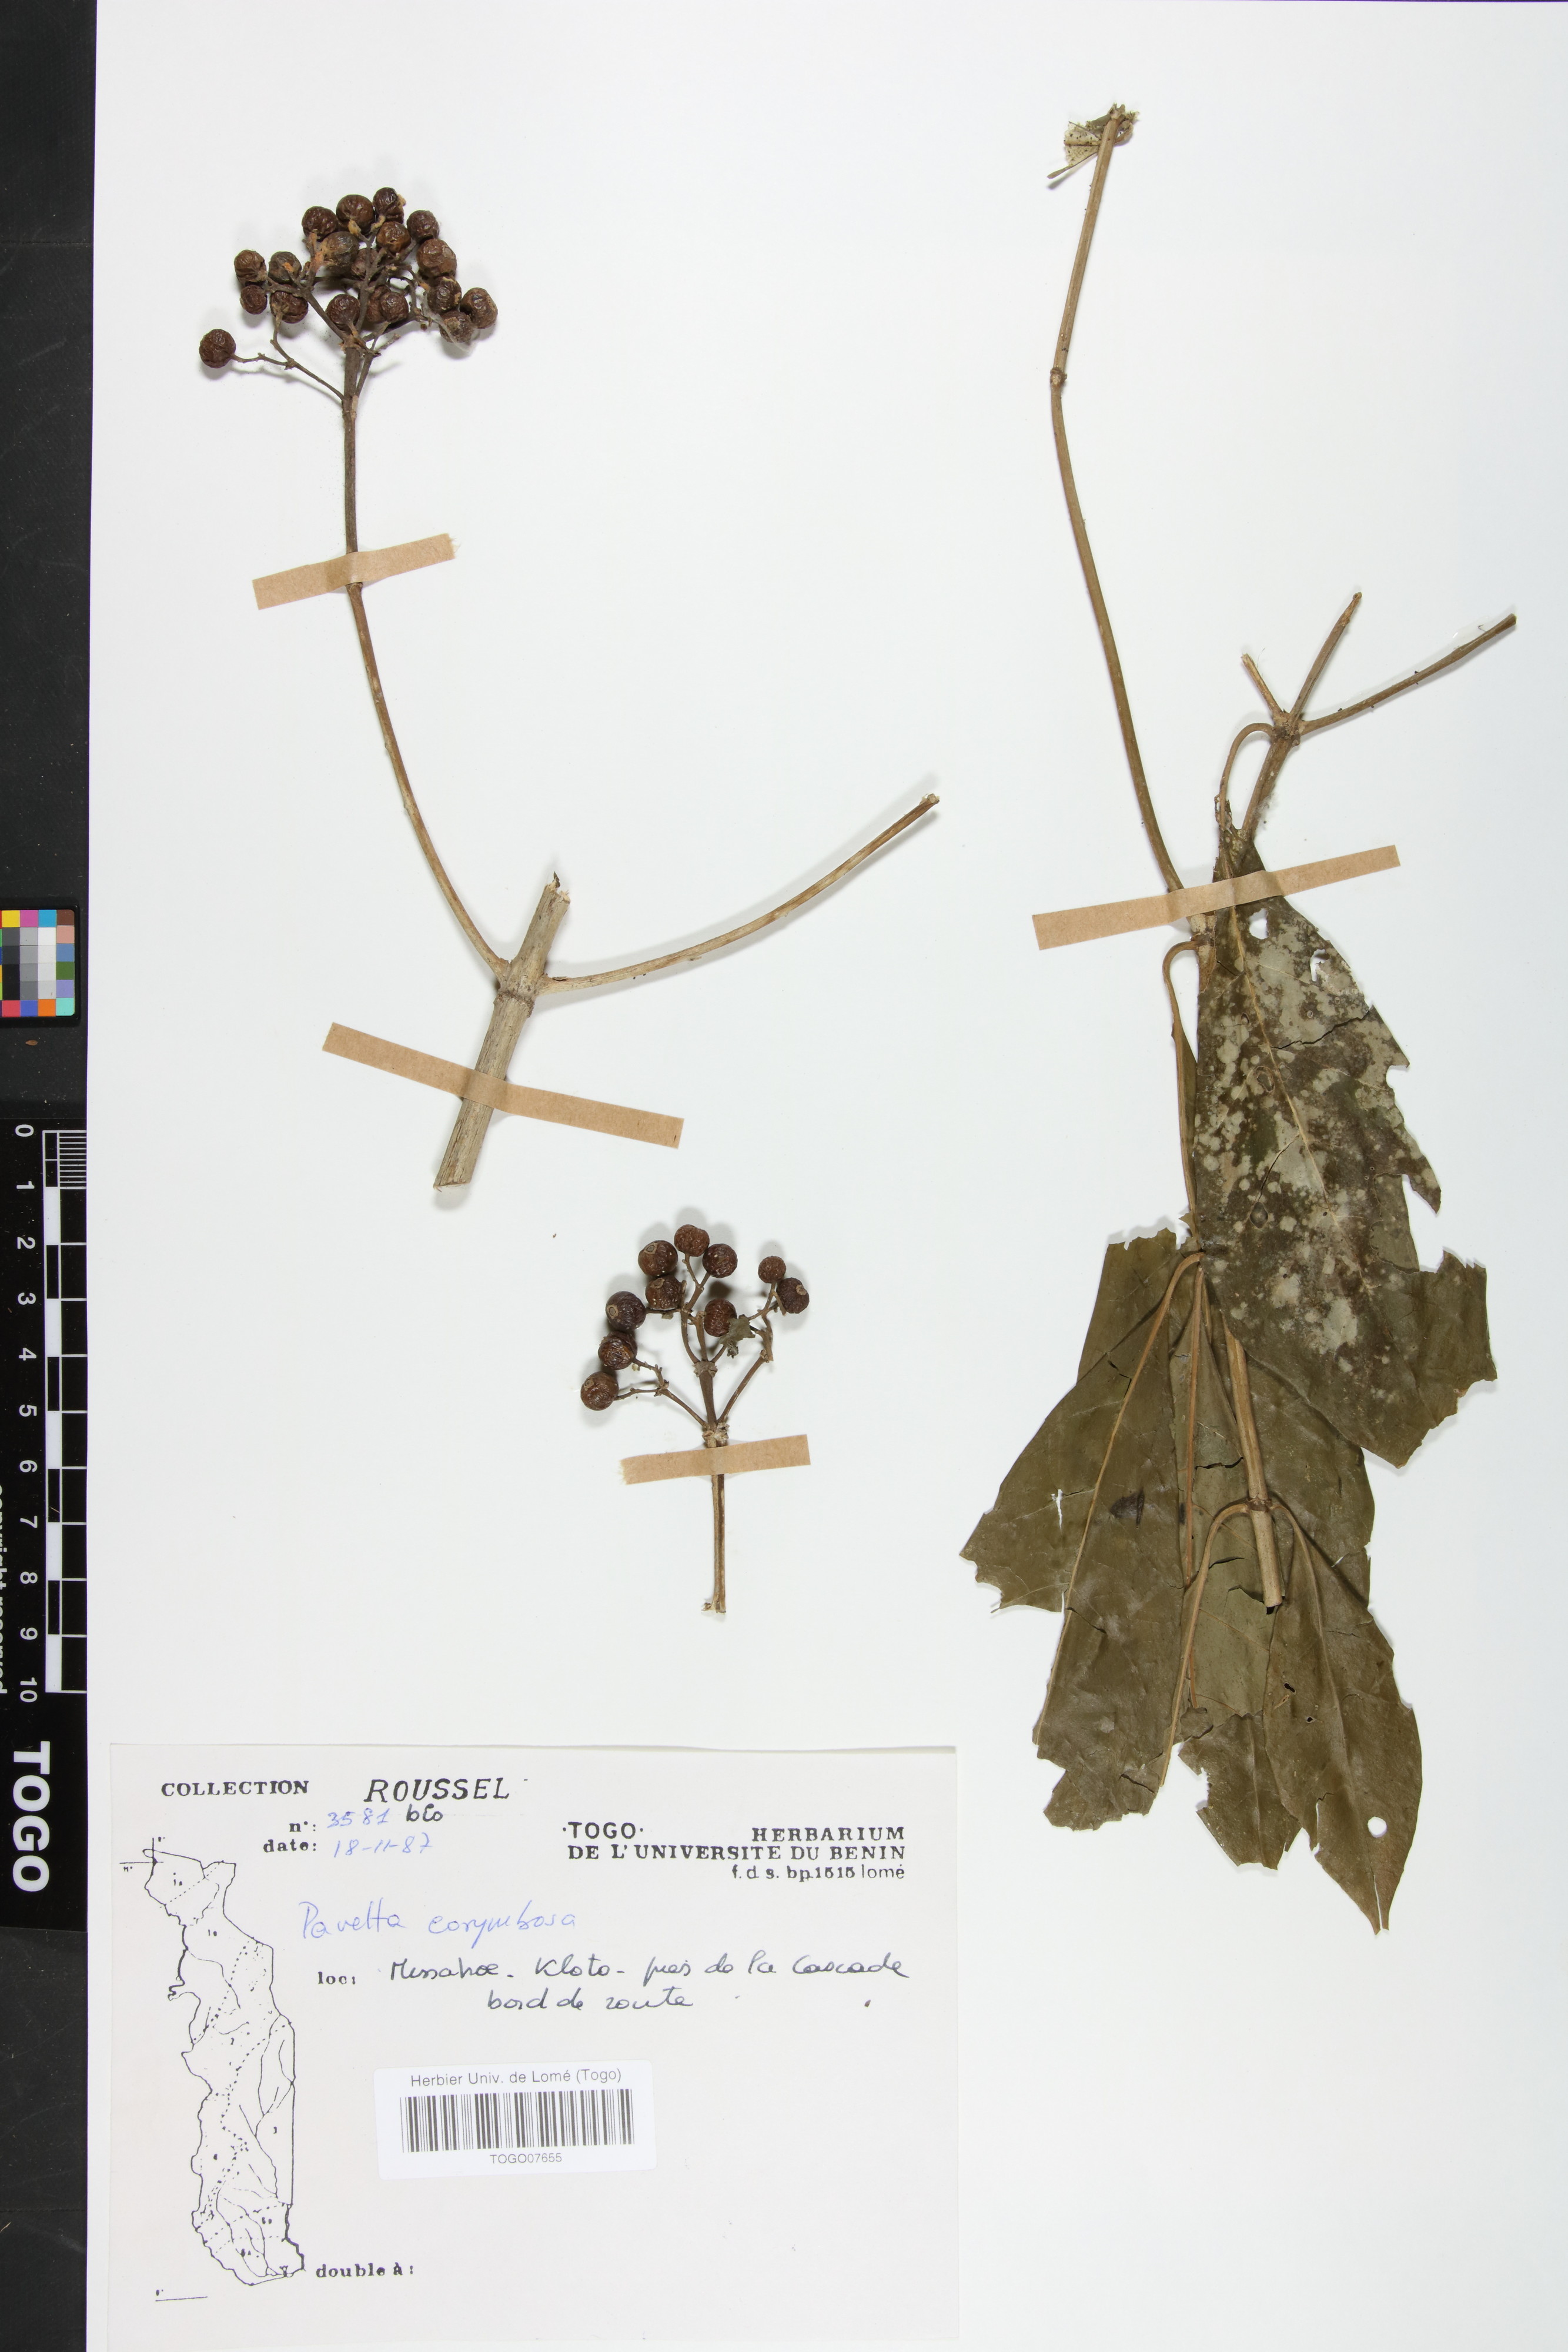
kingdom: Plantae
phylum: Tracheophyta
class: Magnoliopsida
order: Gentianales
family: Rubiaceae
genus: Pavetta
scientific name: Pavetta corymbosa
